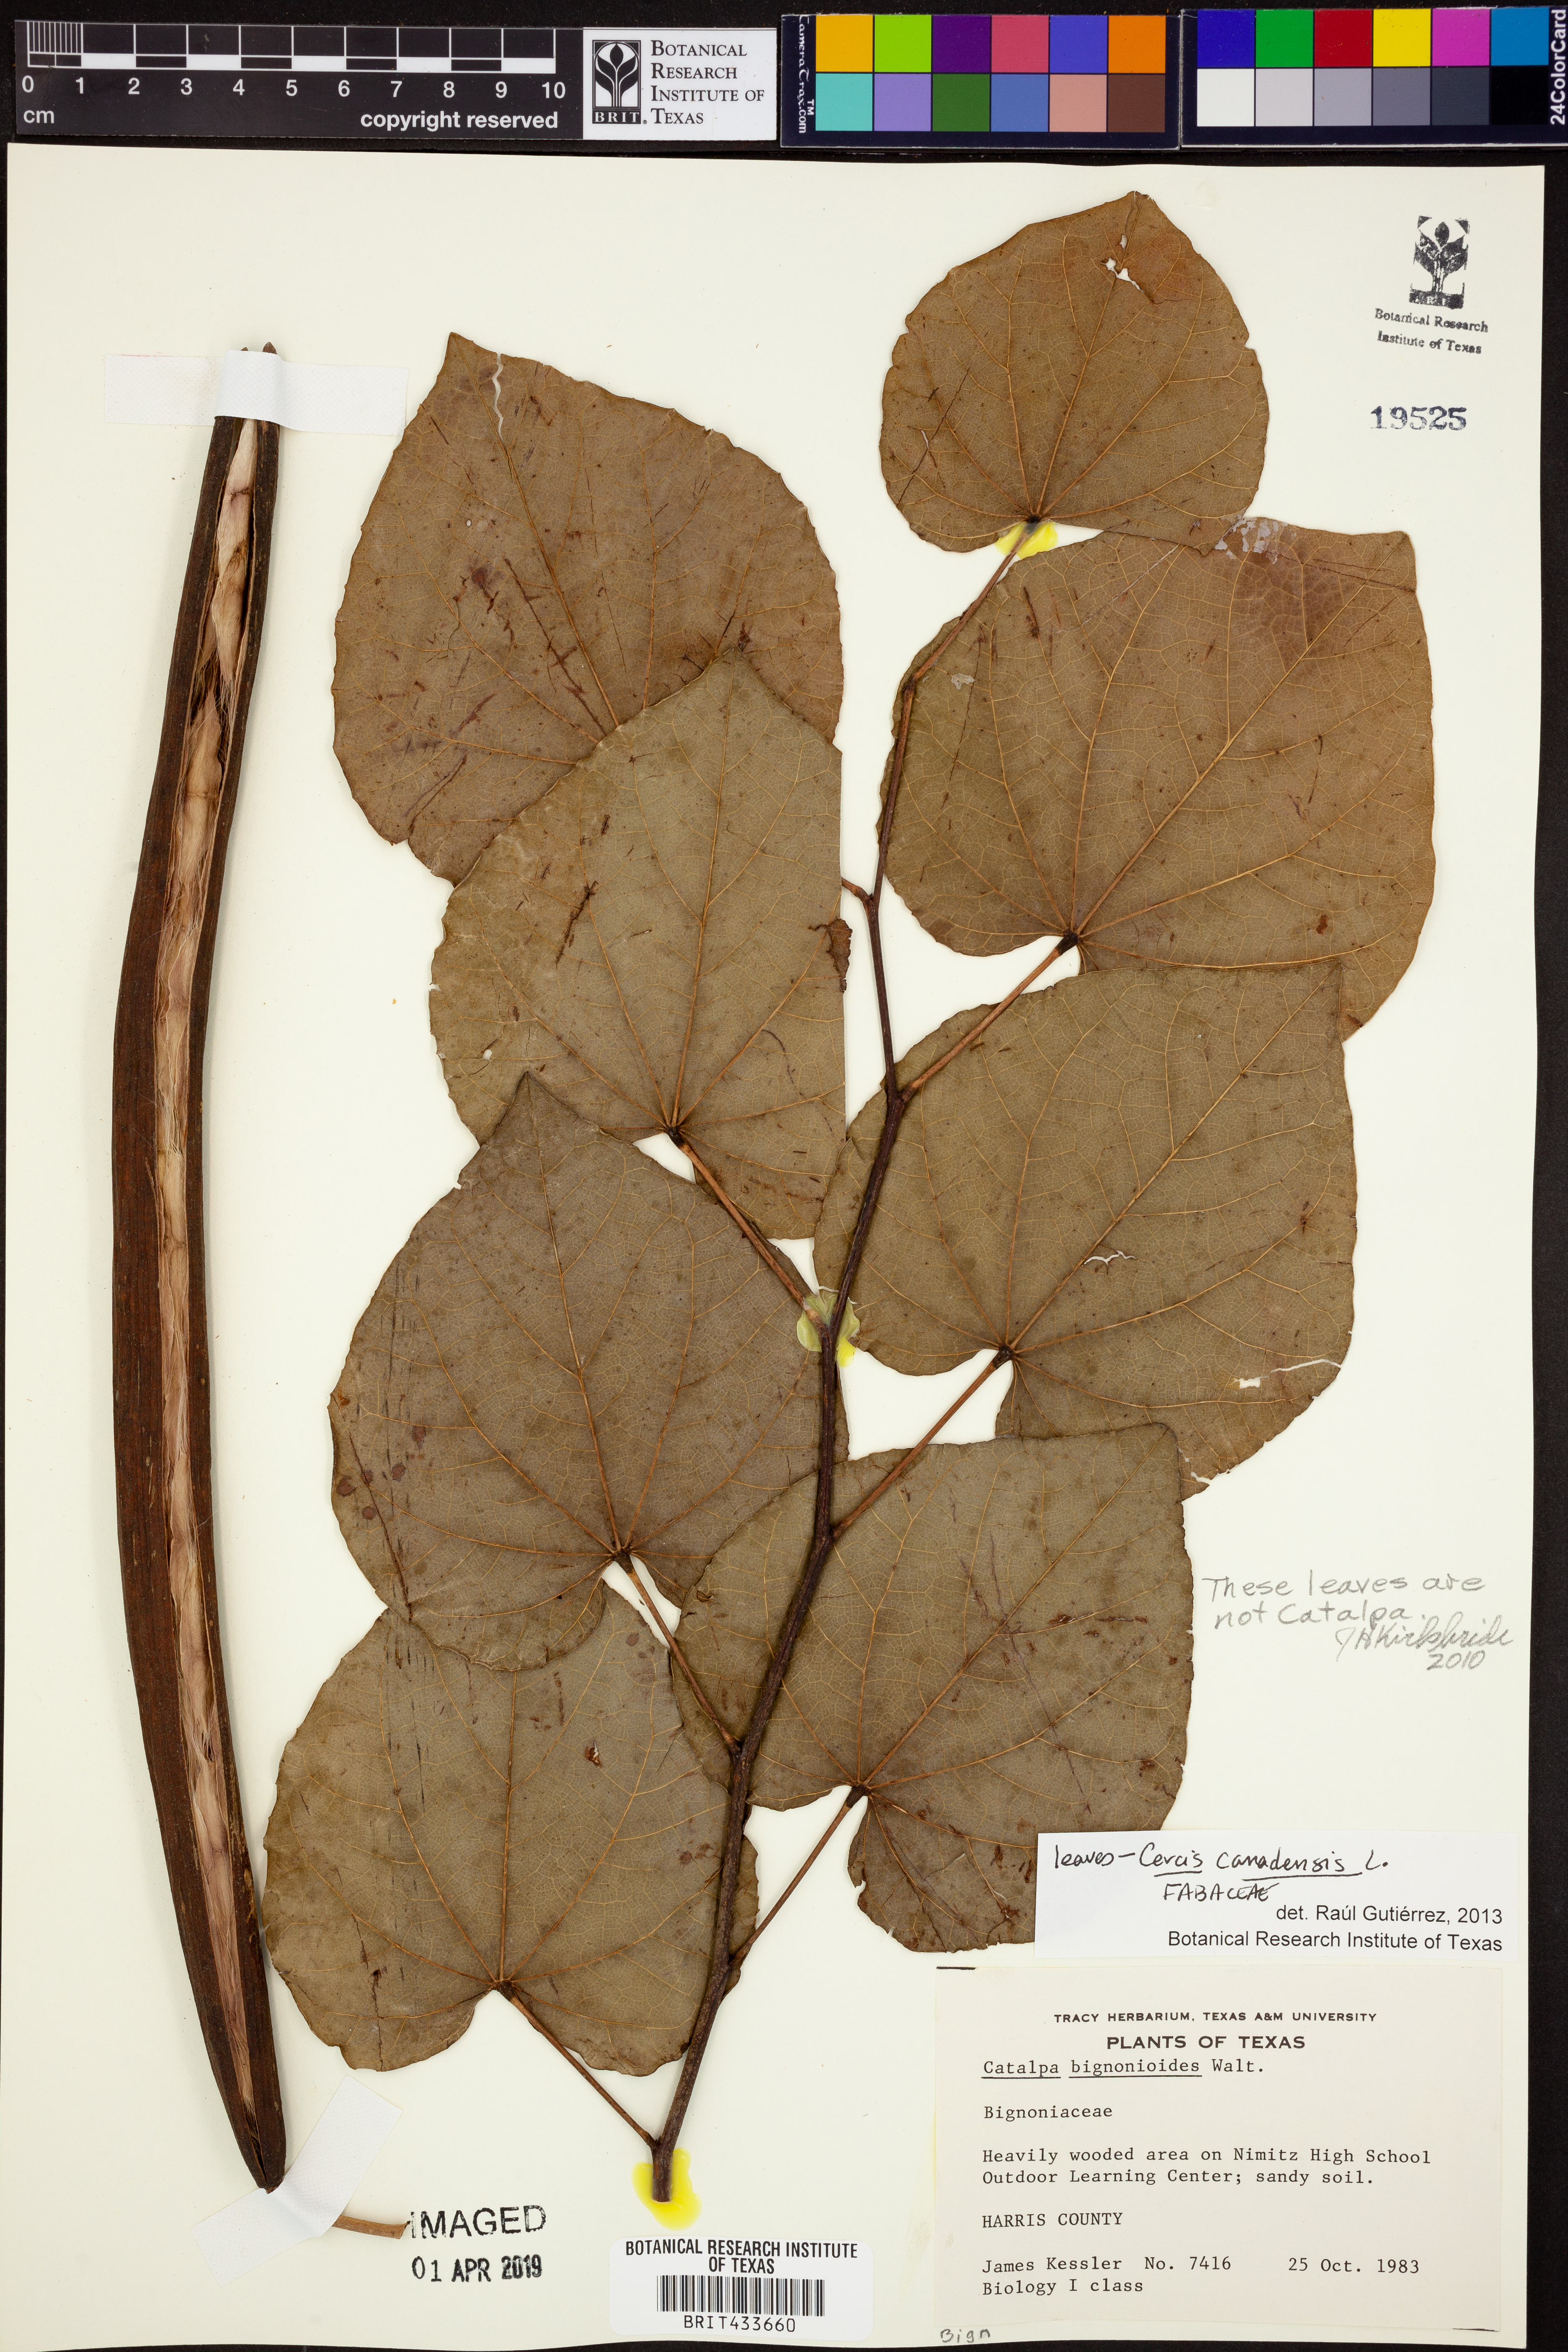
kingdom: Plantae
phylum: Tracheophyta
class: Magnoliopsida
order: Fabales
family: Fabaceae
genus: Cercis
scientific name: Cercis canadensis
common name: Eastern redbud
